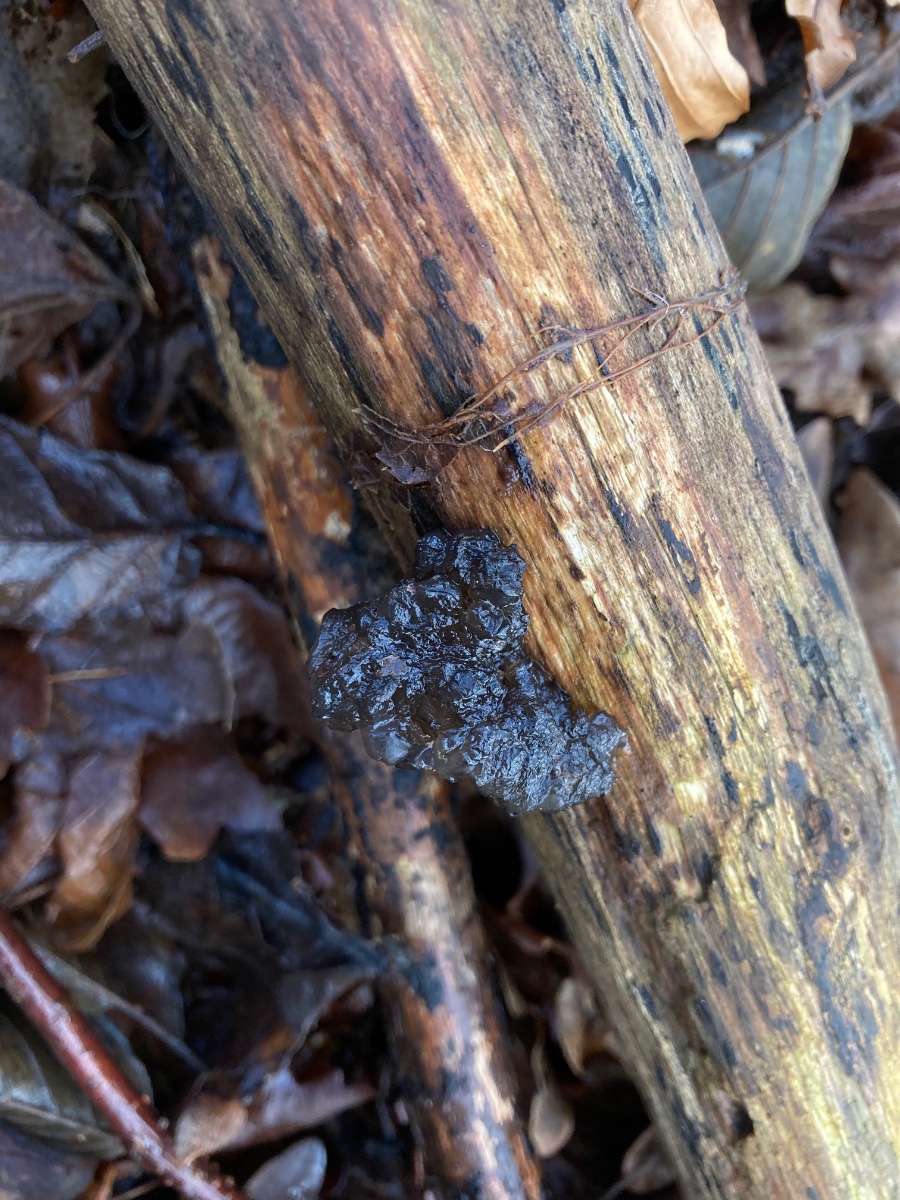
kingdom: Fungi
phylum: Basidiomycota
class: Agaricomycetes
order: Auriculariales
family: Auriculariaceae
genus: Exidia
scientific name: Exidia nigricans
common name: almindelig bævretop
